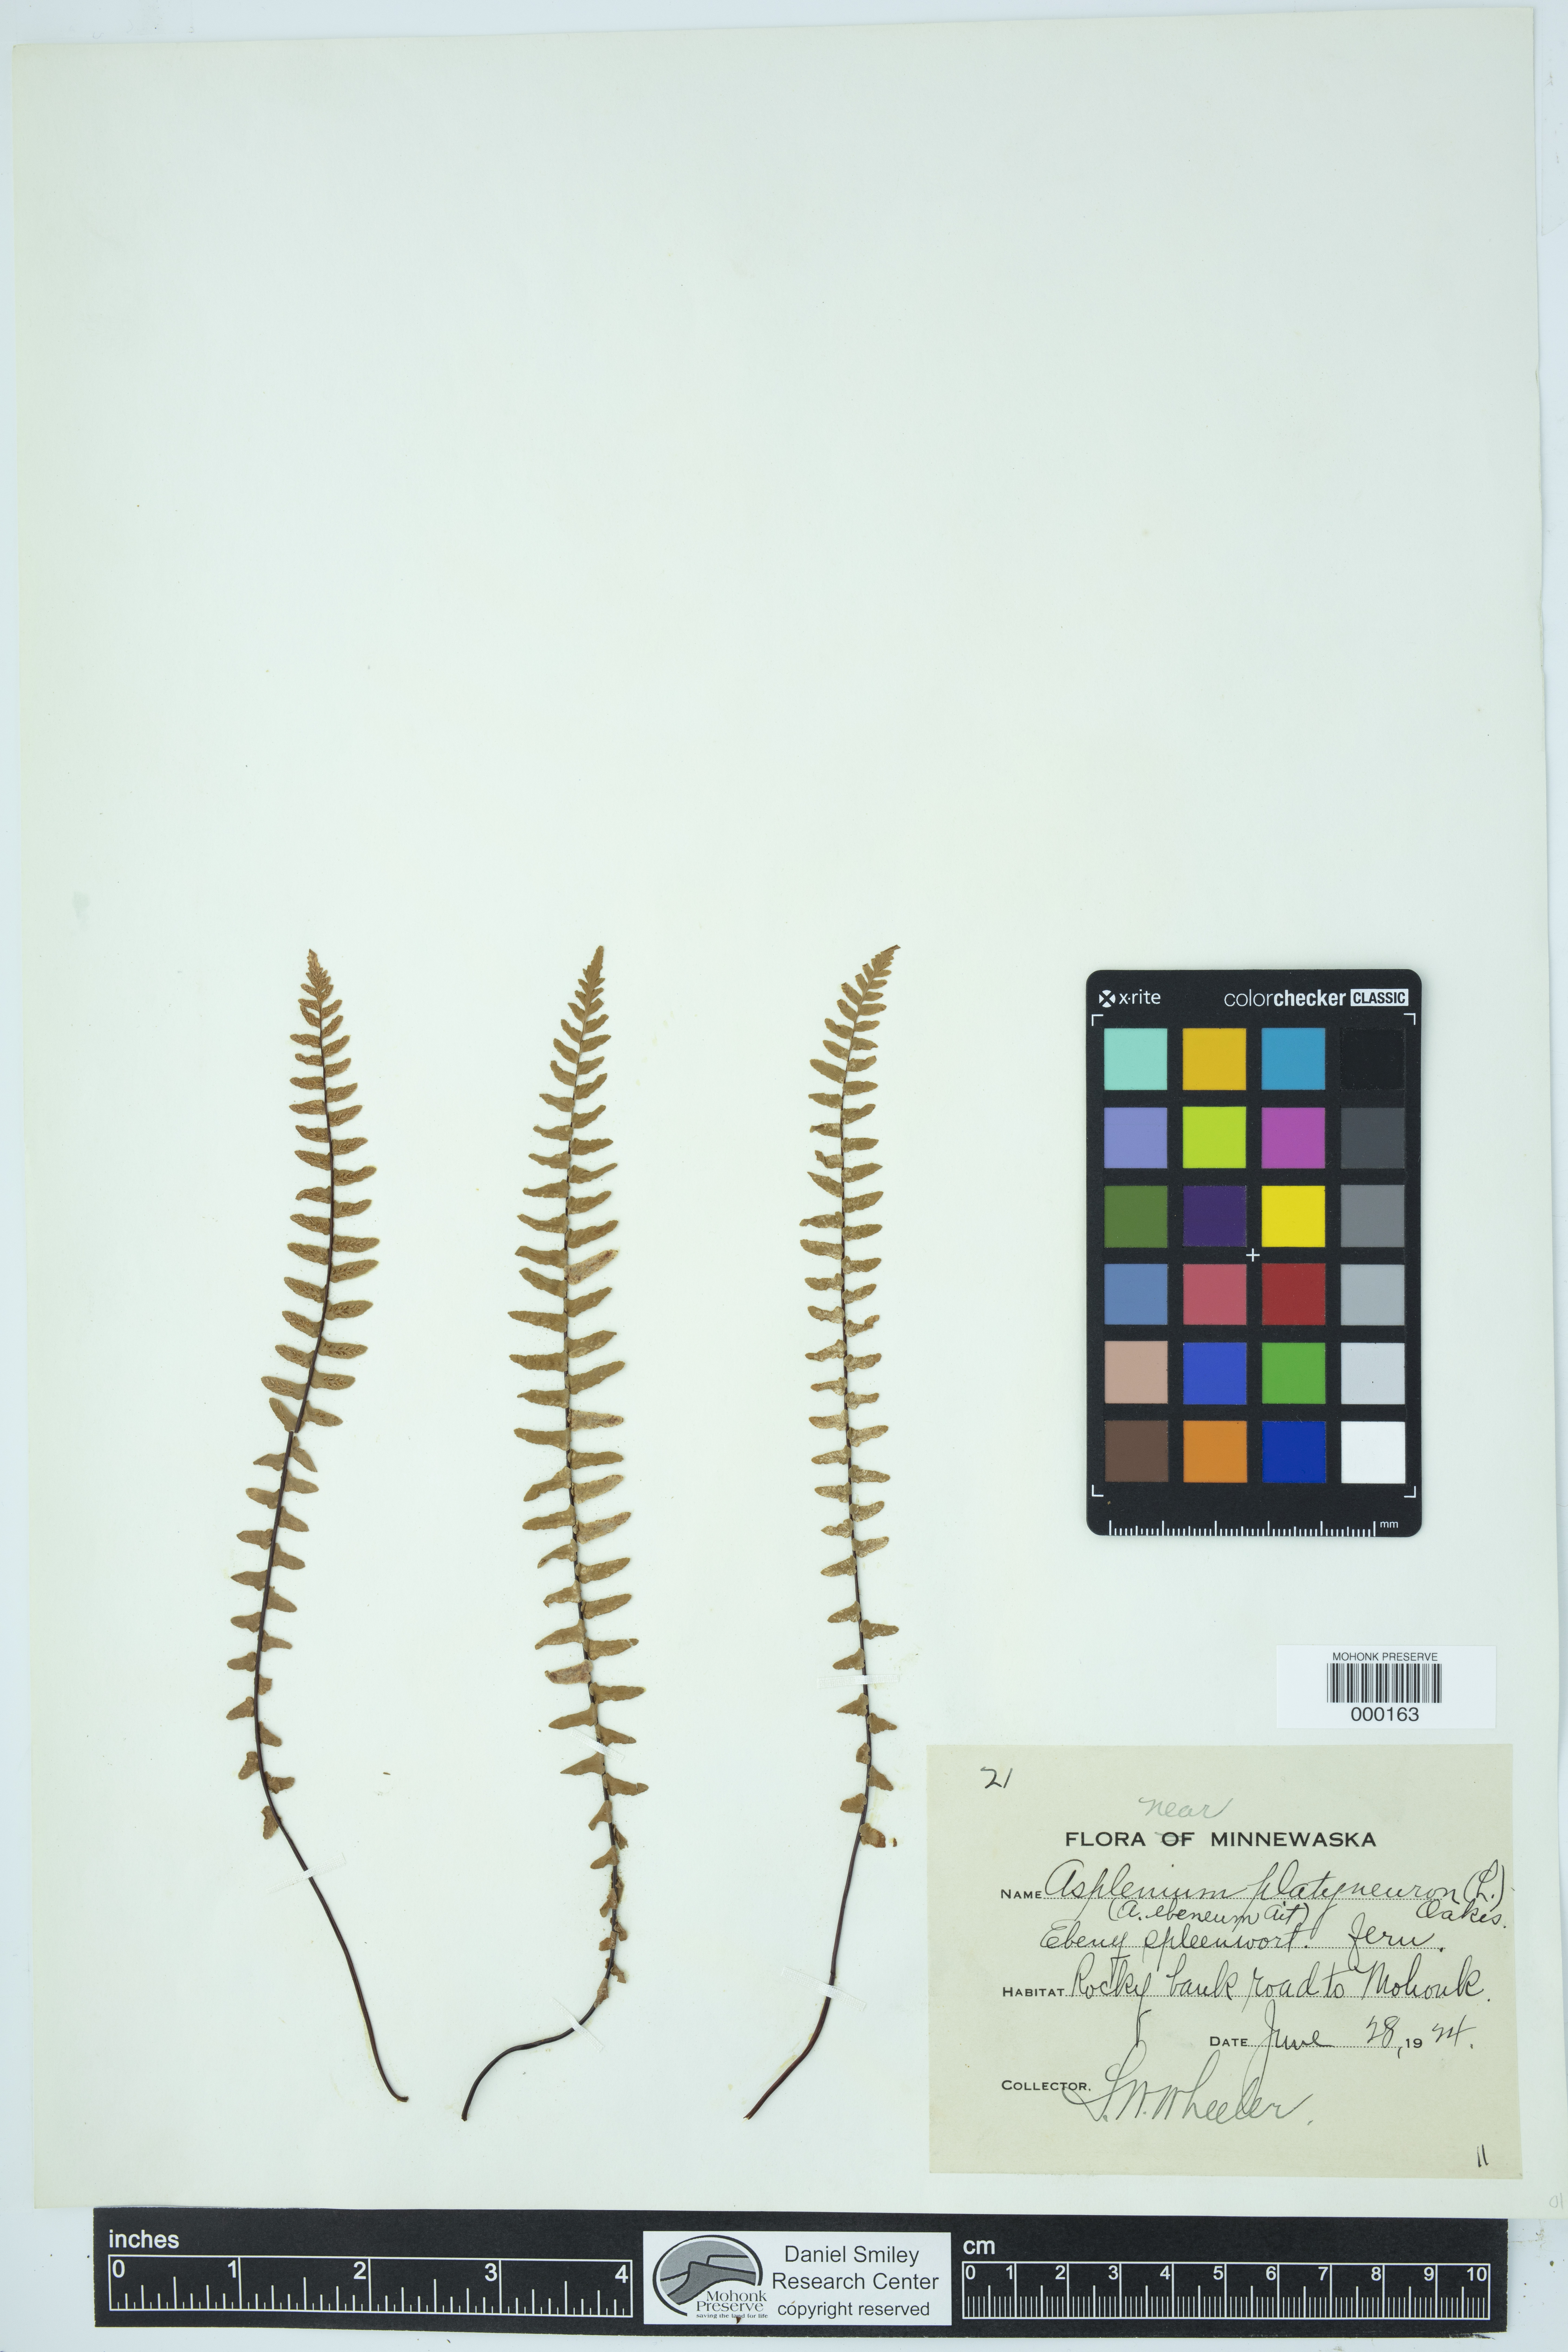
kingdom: Plantae
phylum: Tracheophyta
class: Polypodiopsida
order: Polypodiales
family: Aspleniaceae
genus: Asplenium
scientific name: Asplenium platyneuron
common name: Ebony spleenwort
